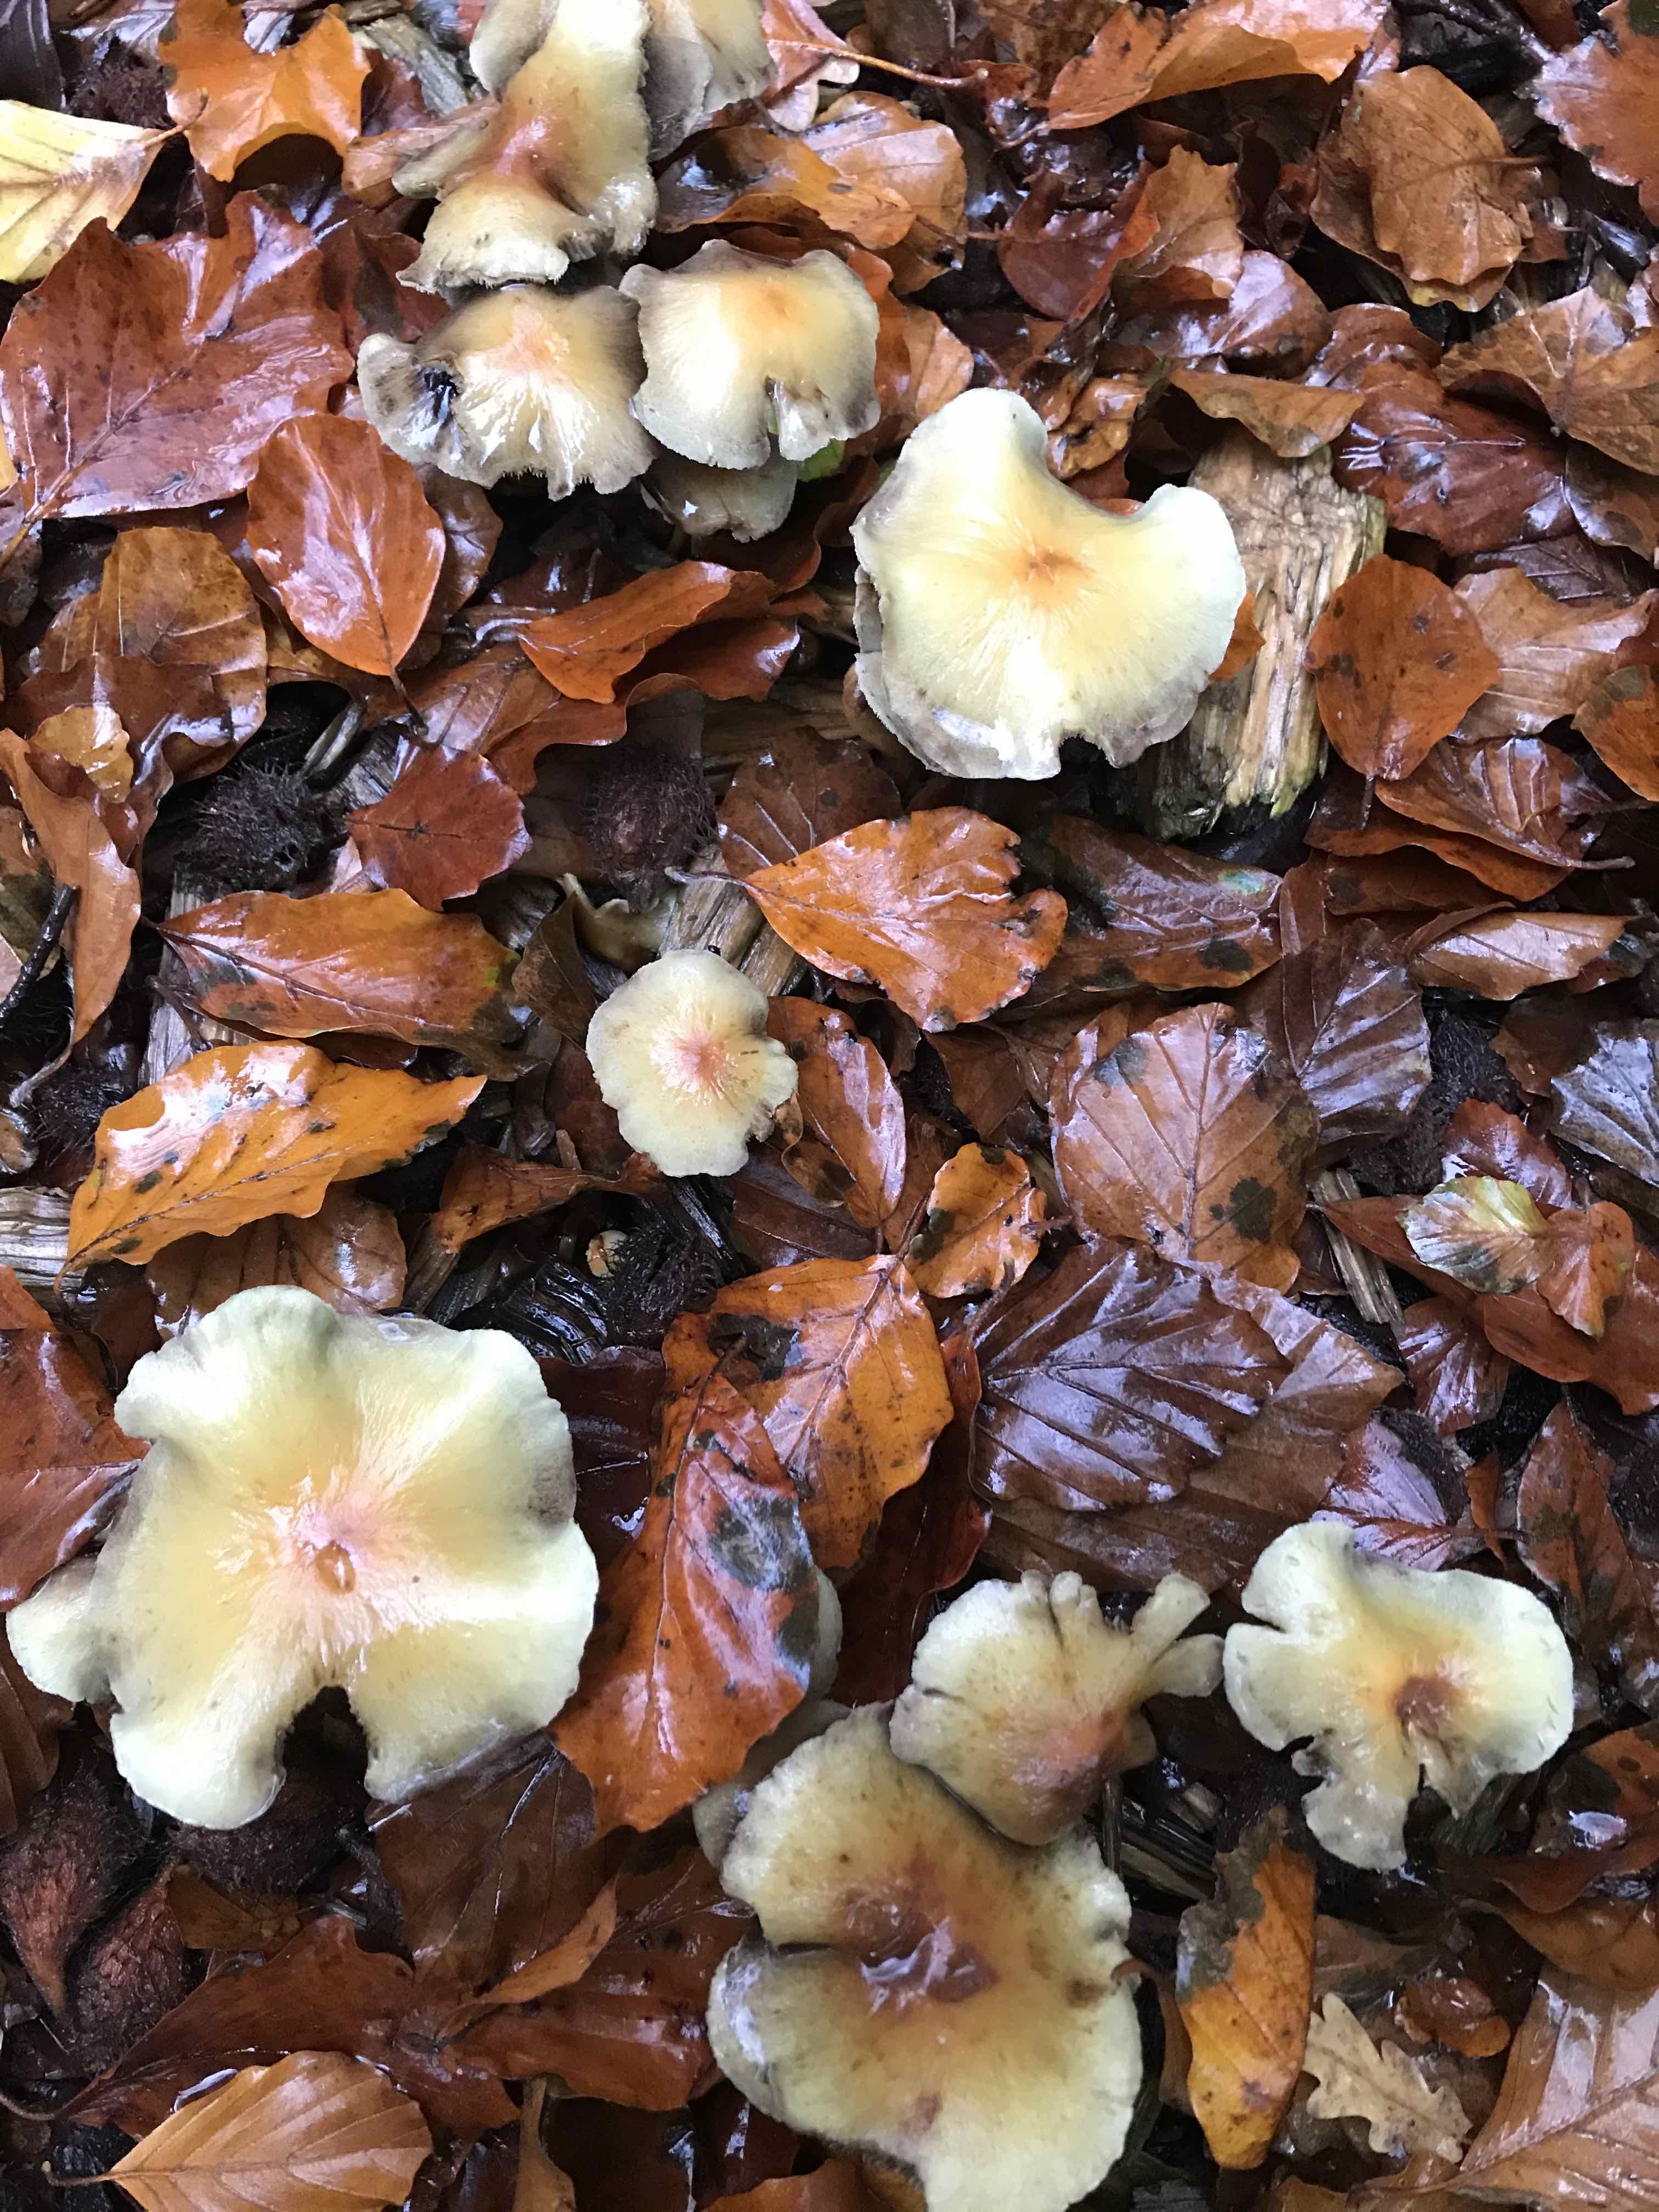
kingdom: Fungi
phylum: Basidiomycota
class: Agaricomycetes
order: Agaricales
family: Strophariaceae
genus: Hypholoma
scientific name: Hypholoma fasciculare
